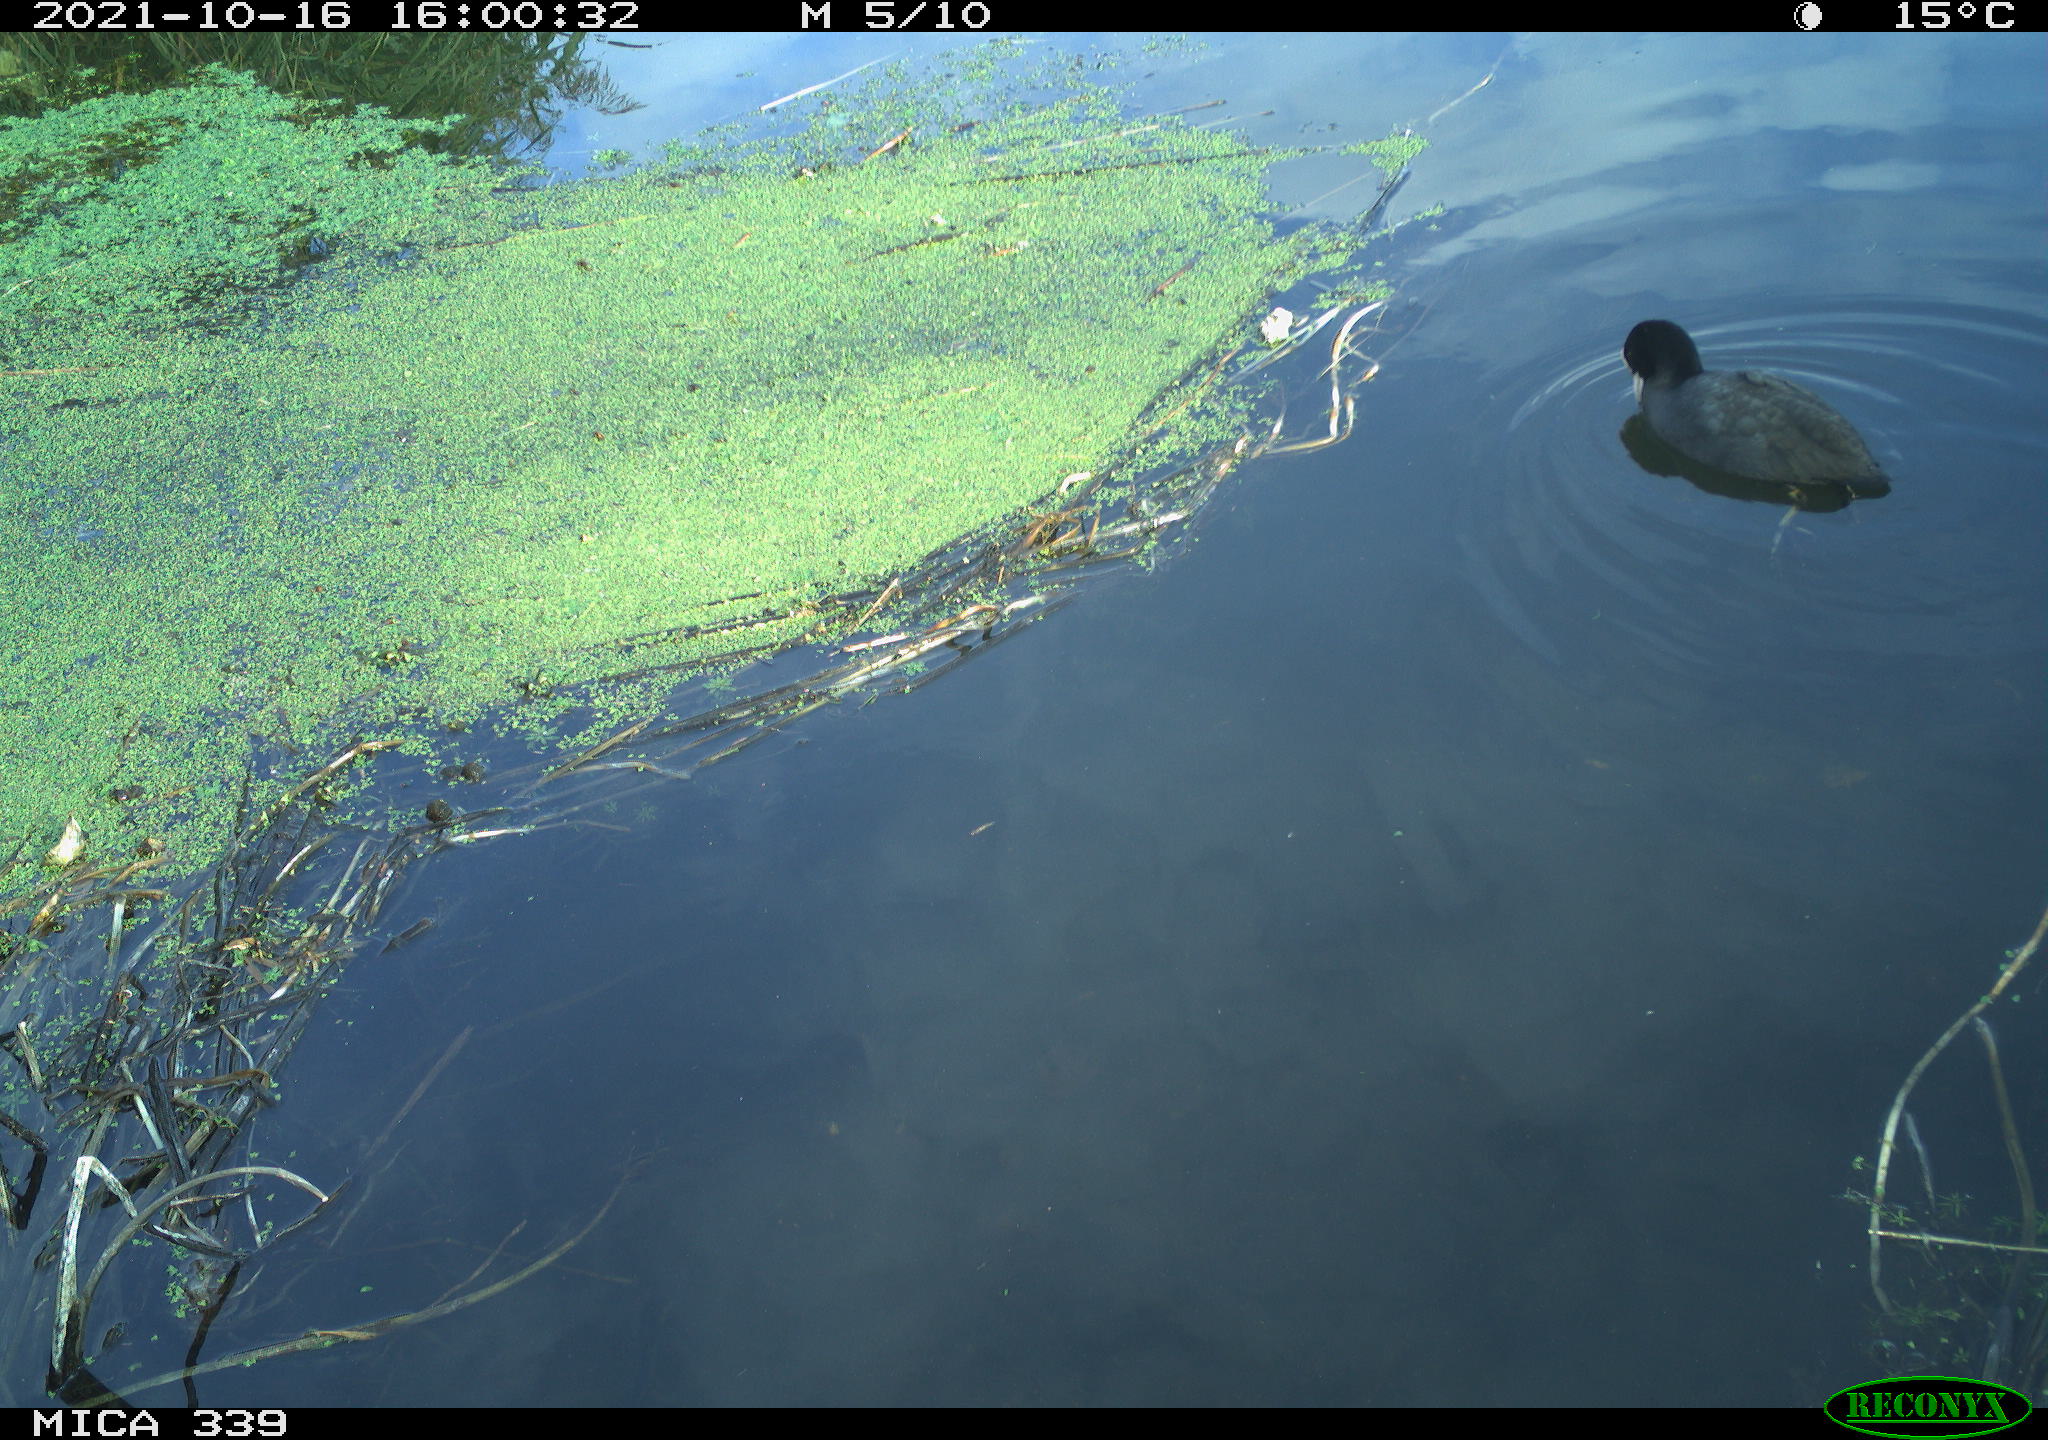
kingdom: Animalia
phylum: Chordata
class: Aves
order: Gruiformes
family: Rallidae
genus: Fulica
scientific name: Fulica atra
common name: Eurasian coot
